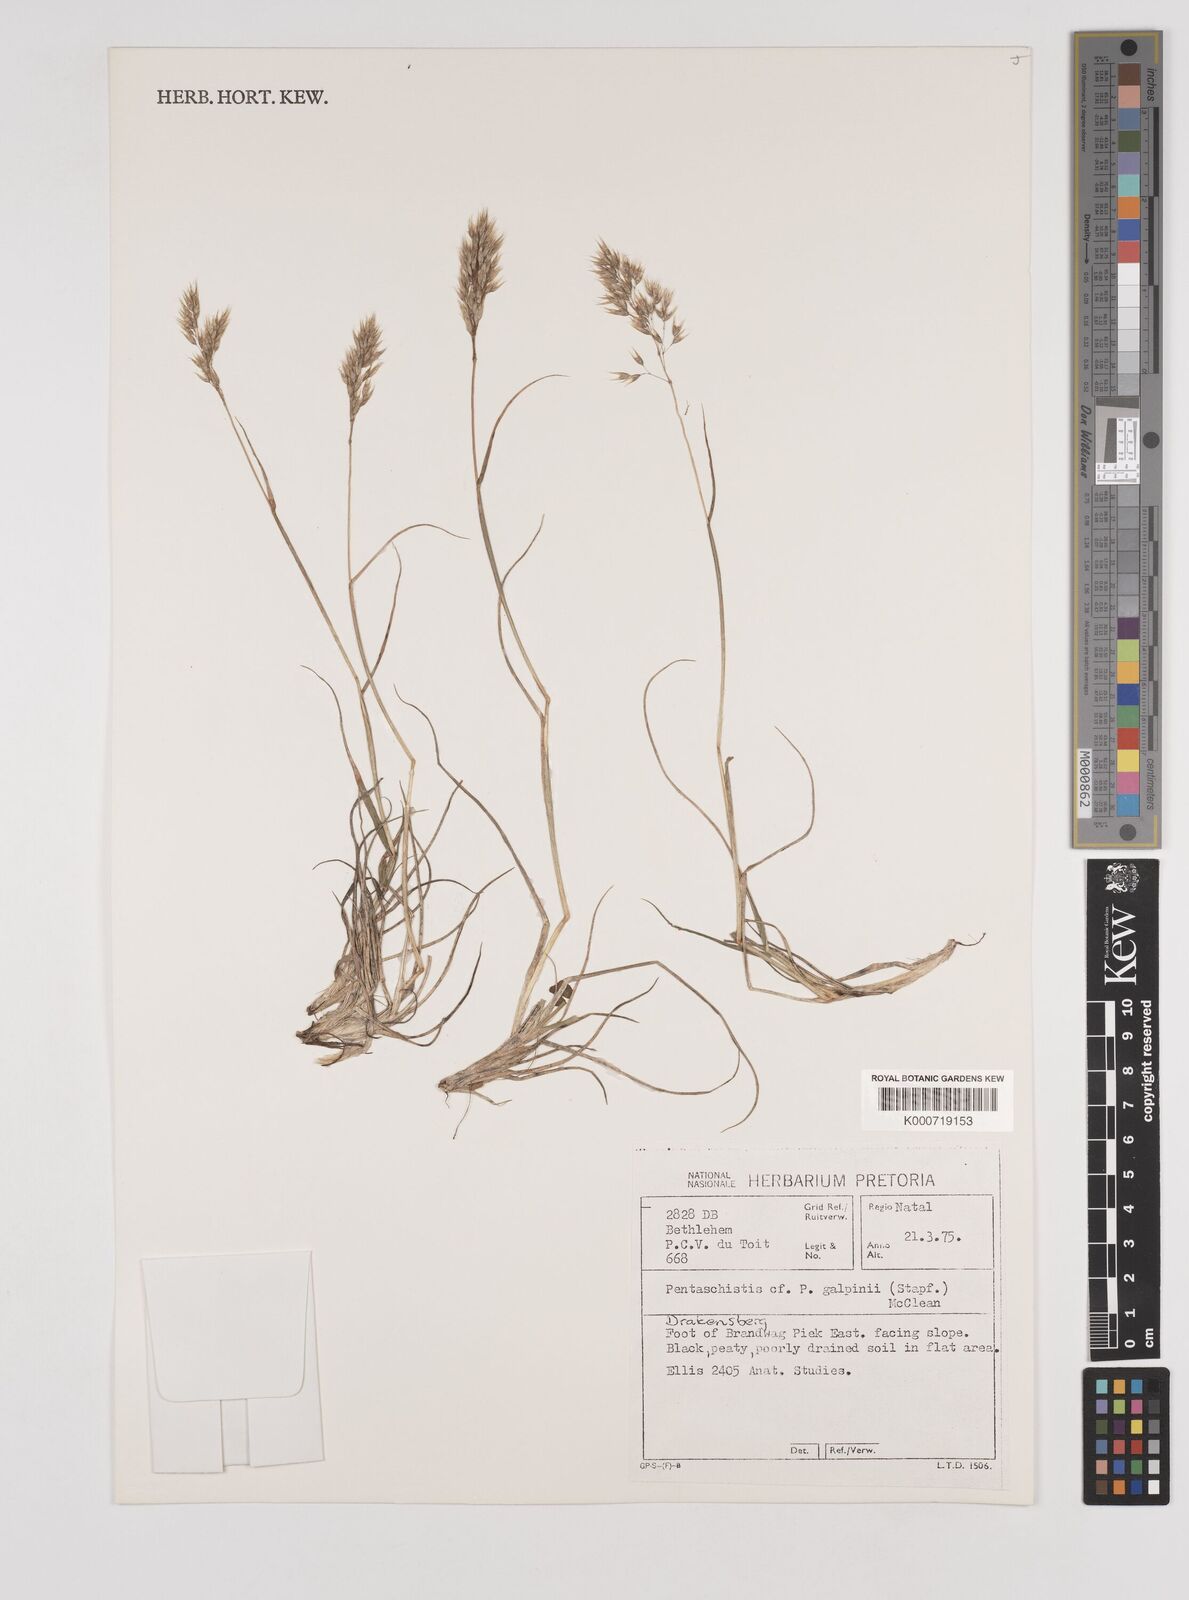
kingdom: Plantae
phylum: Tracheophyta
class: Liliopsida
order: Poales
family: Poaceae
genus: Pentameris
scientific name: Pentameris galpinii
